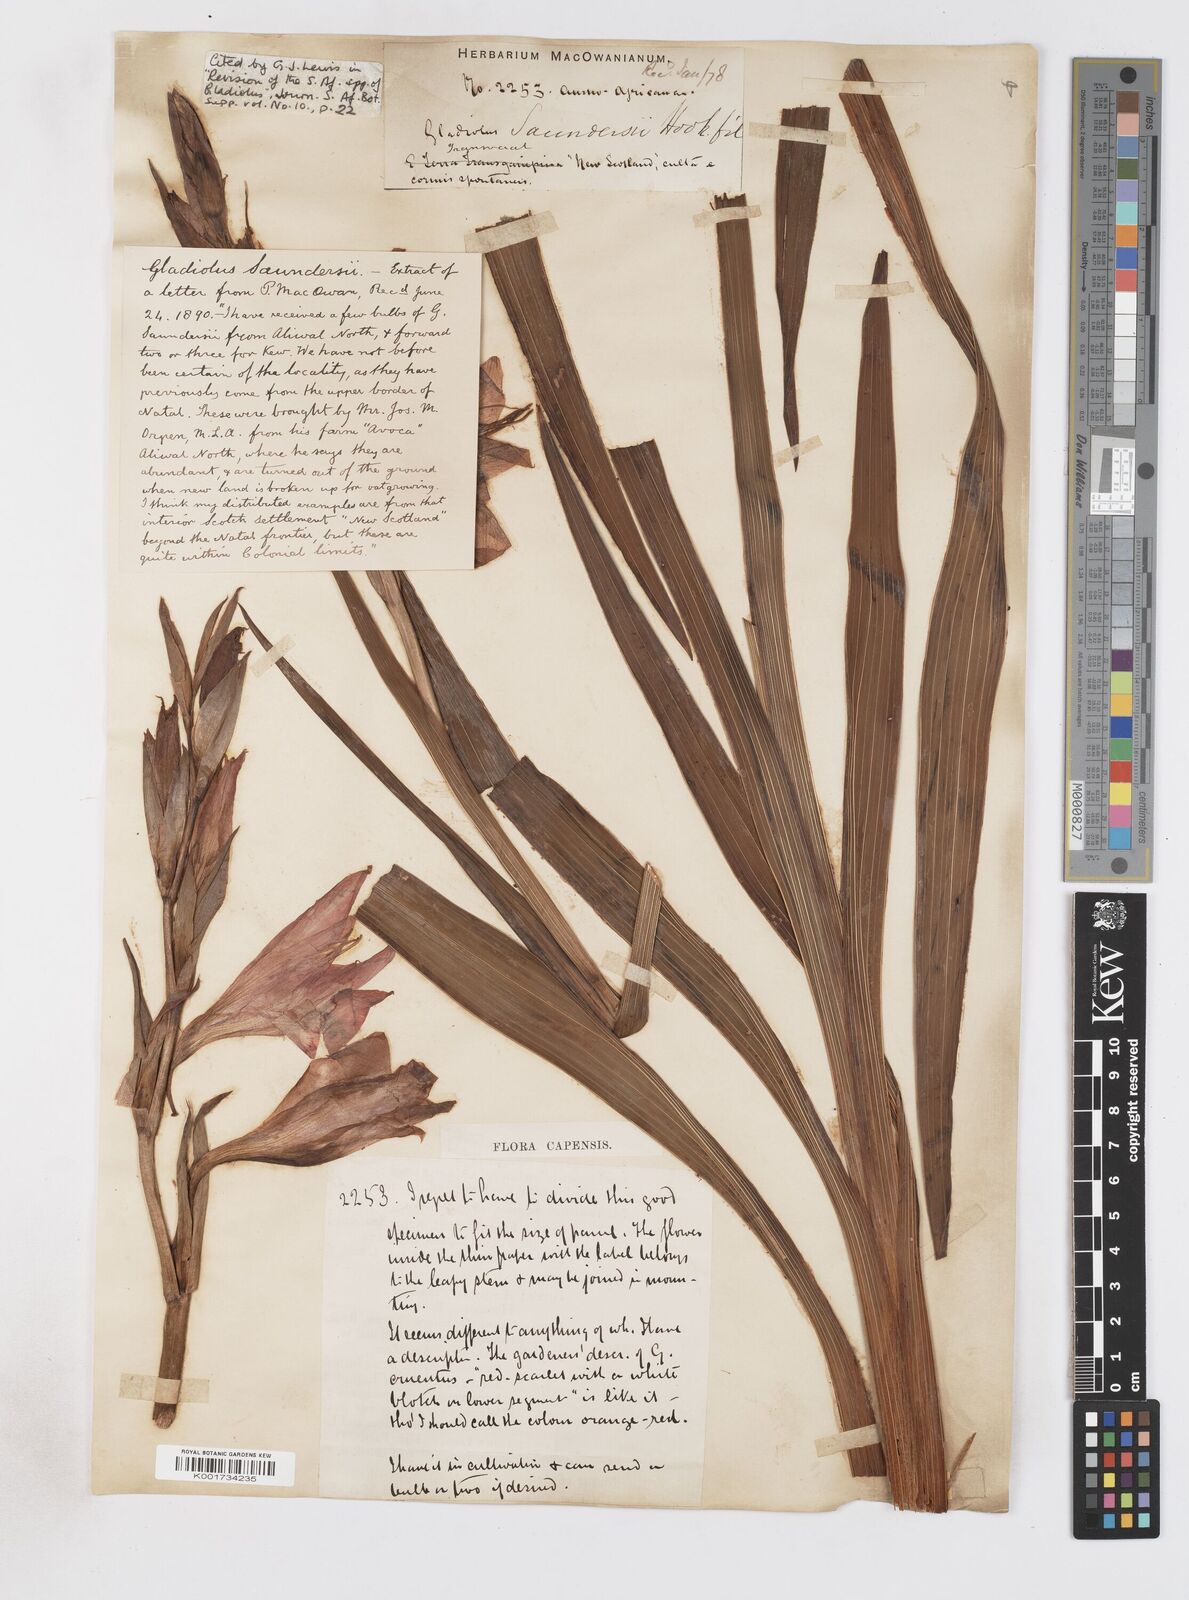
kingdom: Plantae
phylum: Tracheophyta
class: Liliopsida
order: Asparagales
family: Iridaceae
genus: Gladiolus
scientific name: Gladiolus saundersii
